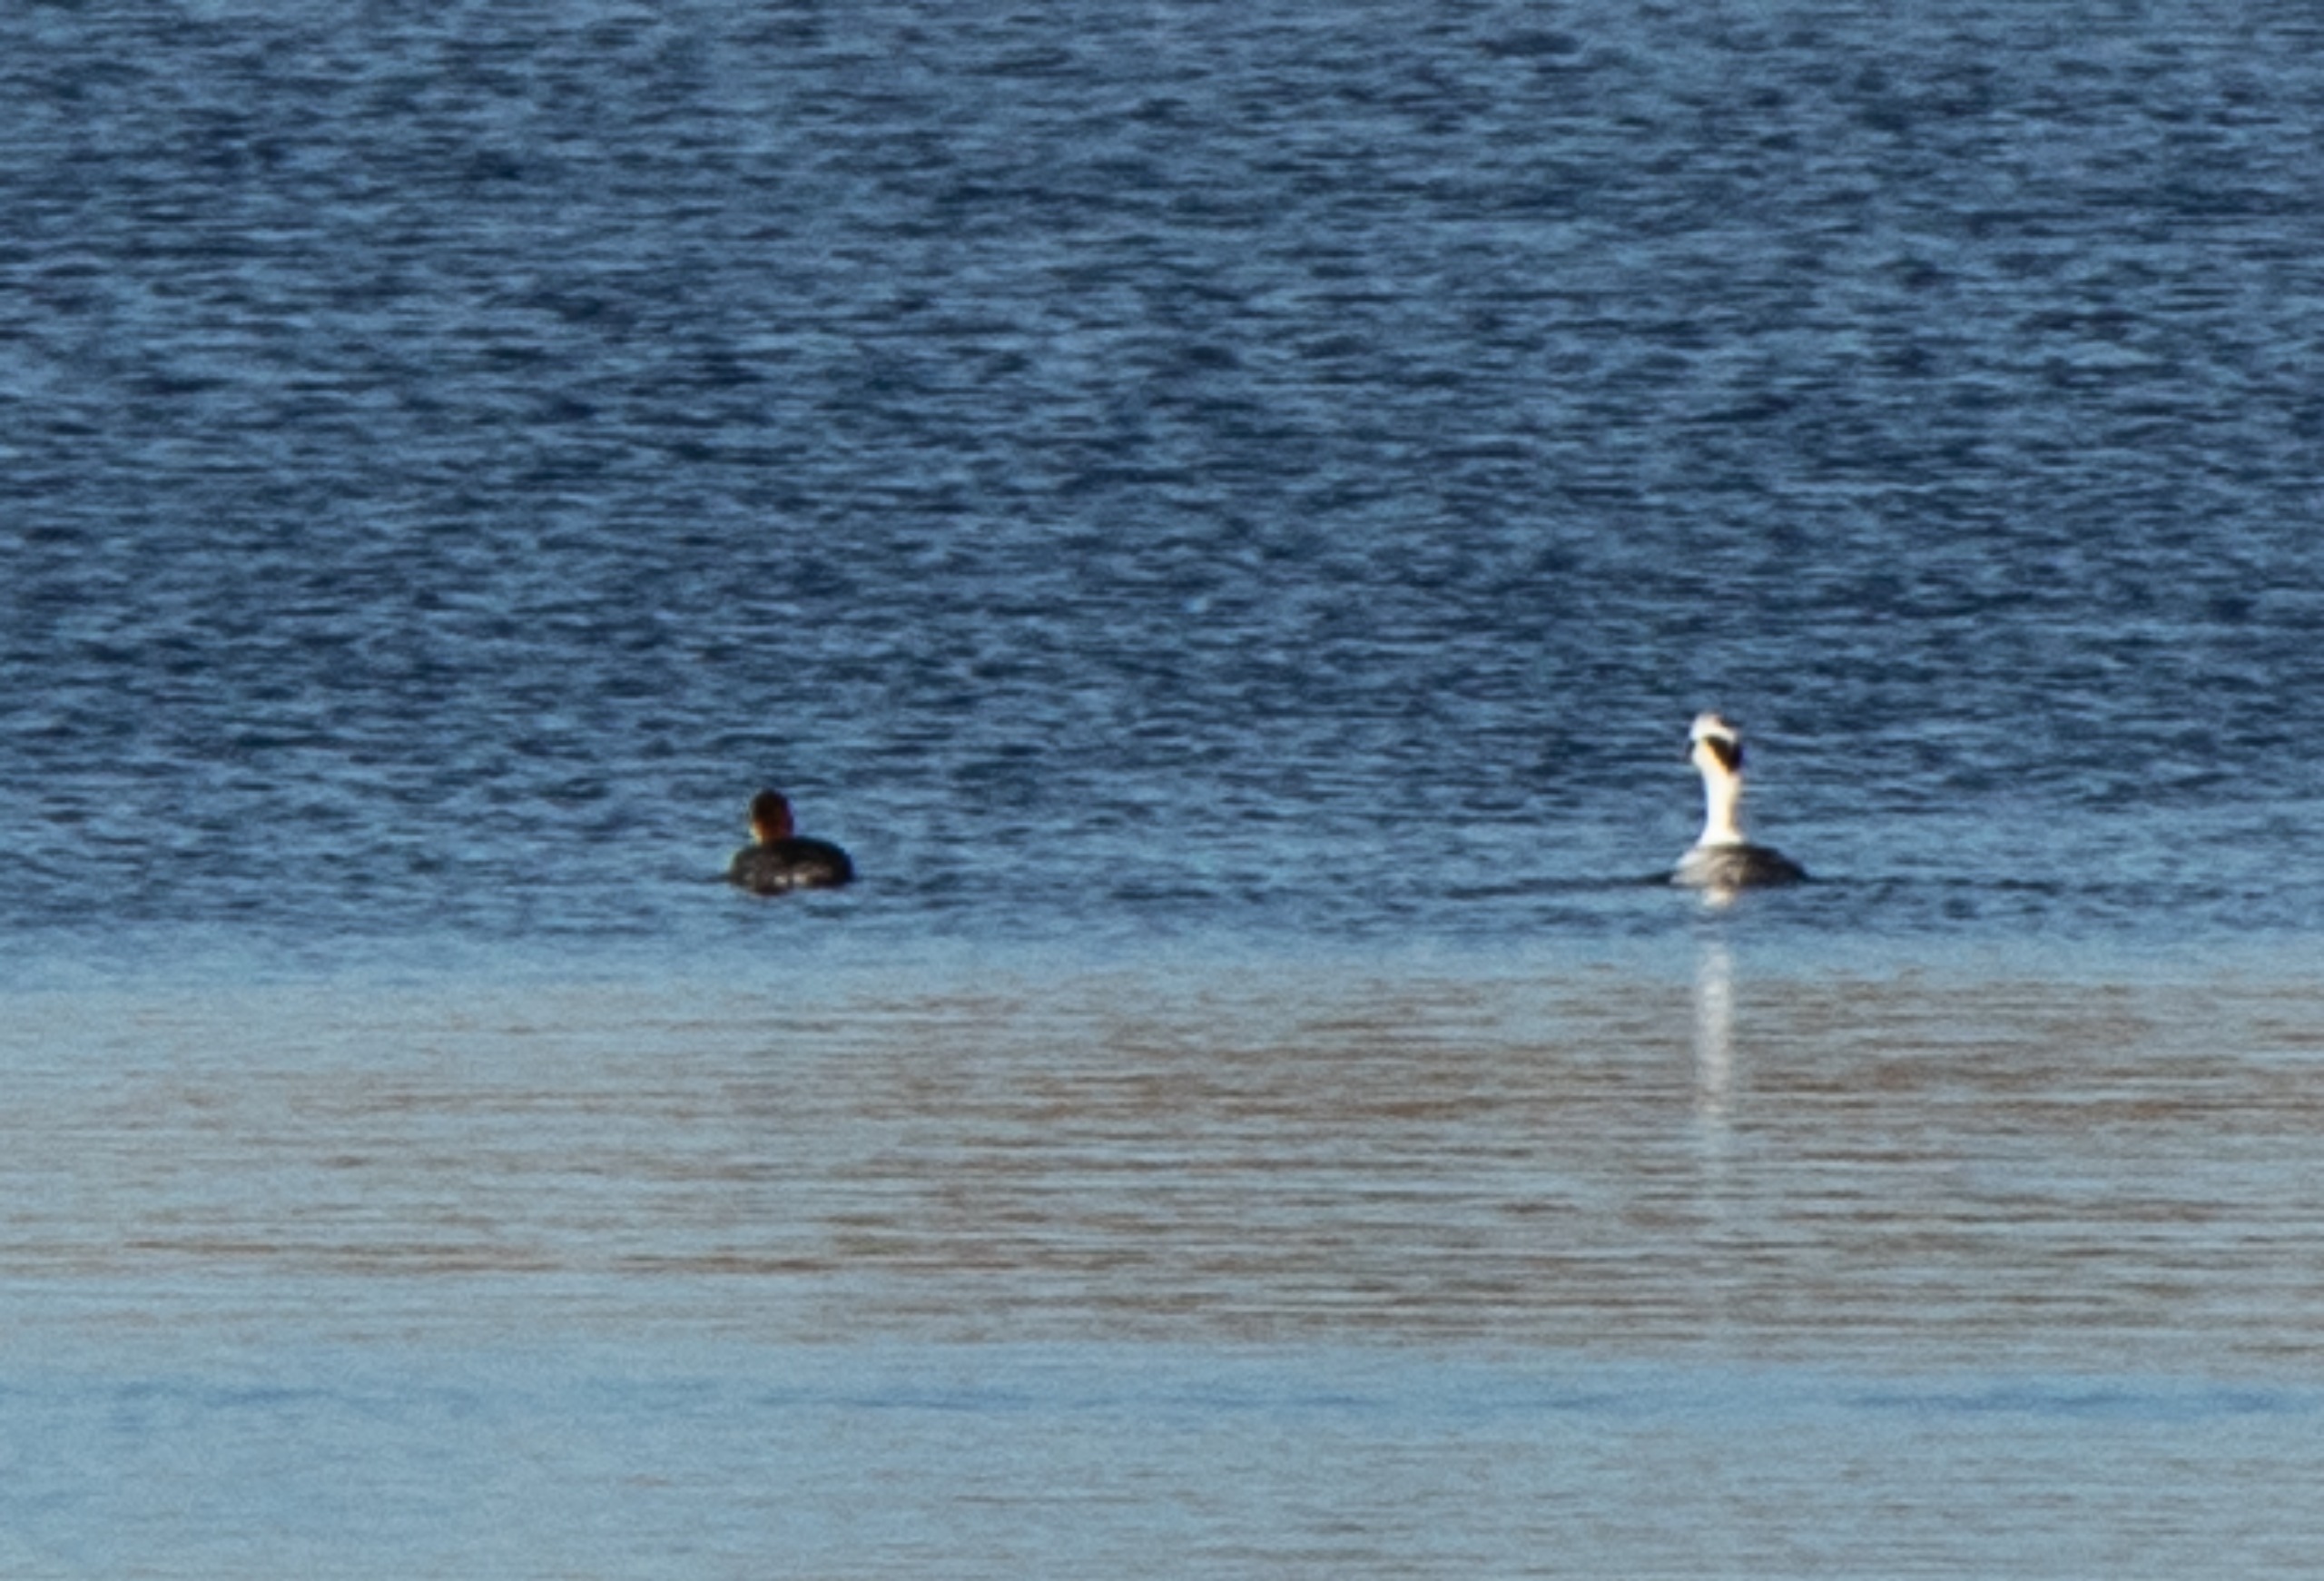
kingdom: Animalia
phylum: Chordata
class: Aves
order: Anseriformes
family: Anatidae
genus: Mergellus
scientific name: Mergellus albellus
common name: Lille skallesluger
